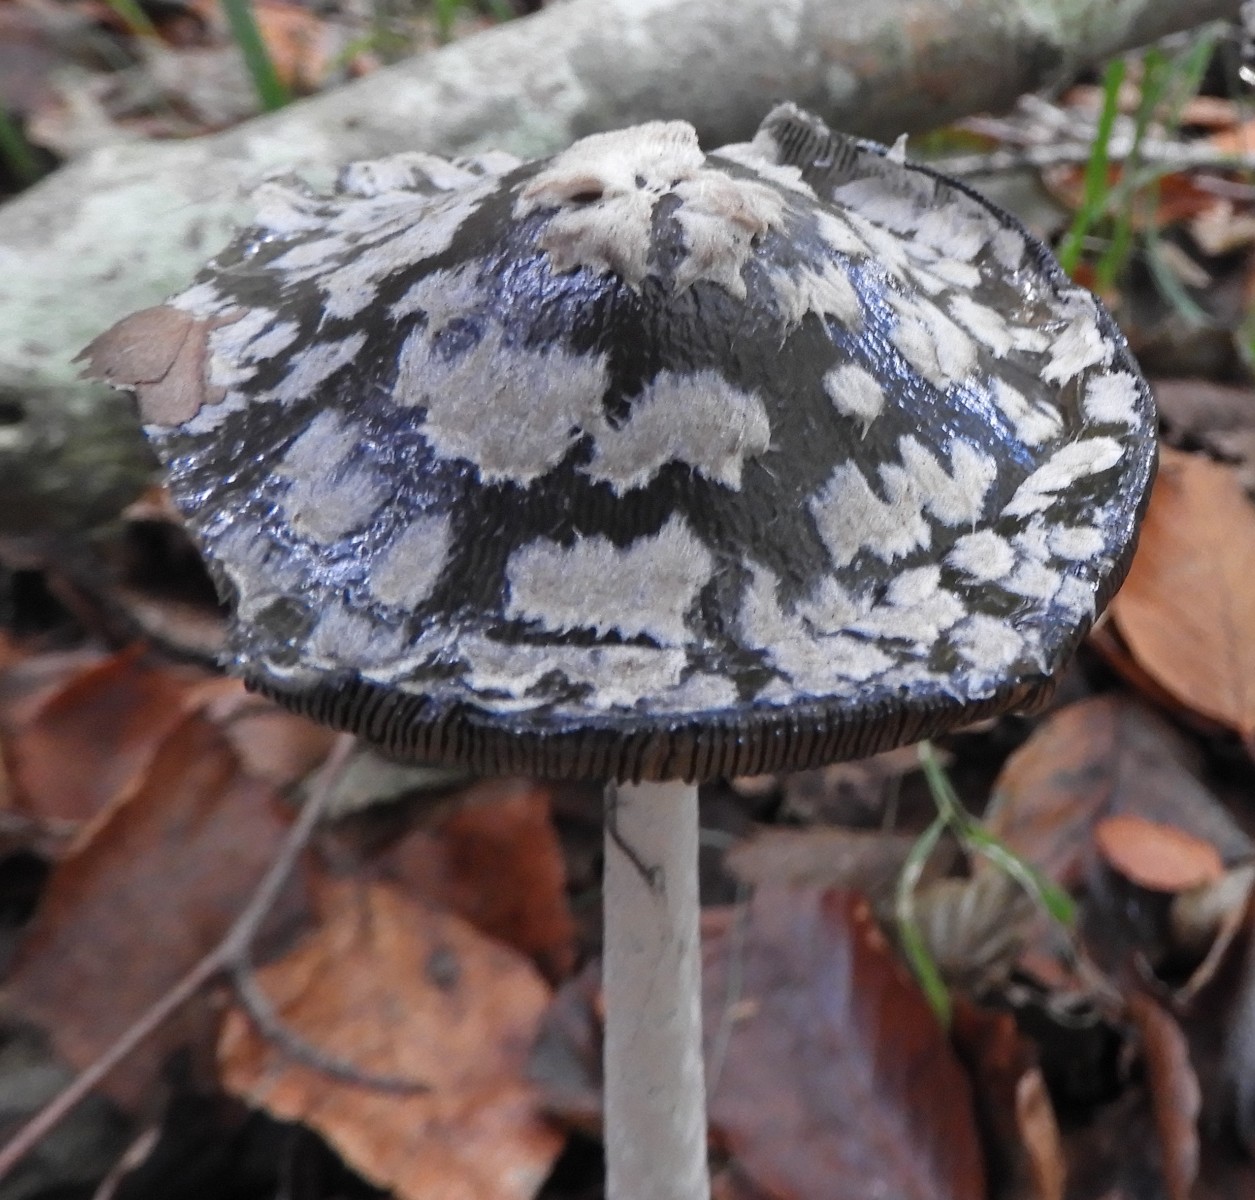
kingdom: Fungi
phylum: Basidiomycota
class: Agaricomycetes
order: Agaricales
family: Psathyrellaceae
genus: Coprinopsis
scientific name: Coprinopsis picacea
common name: skade-blækhat
